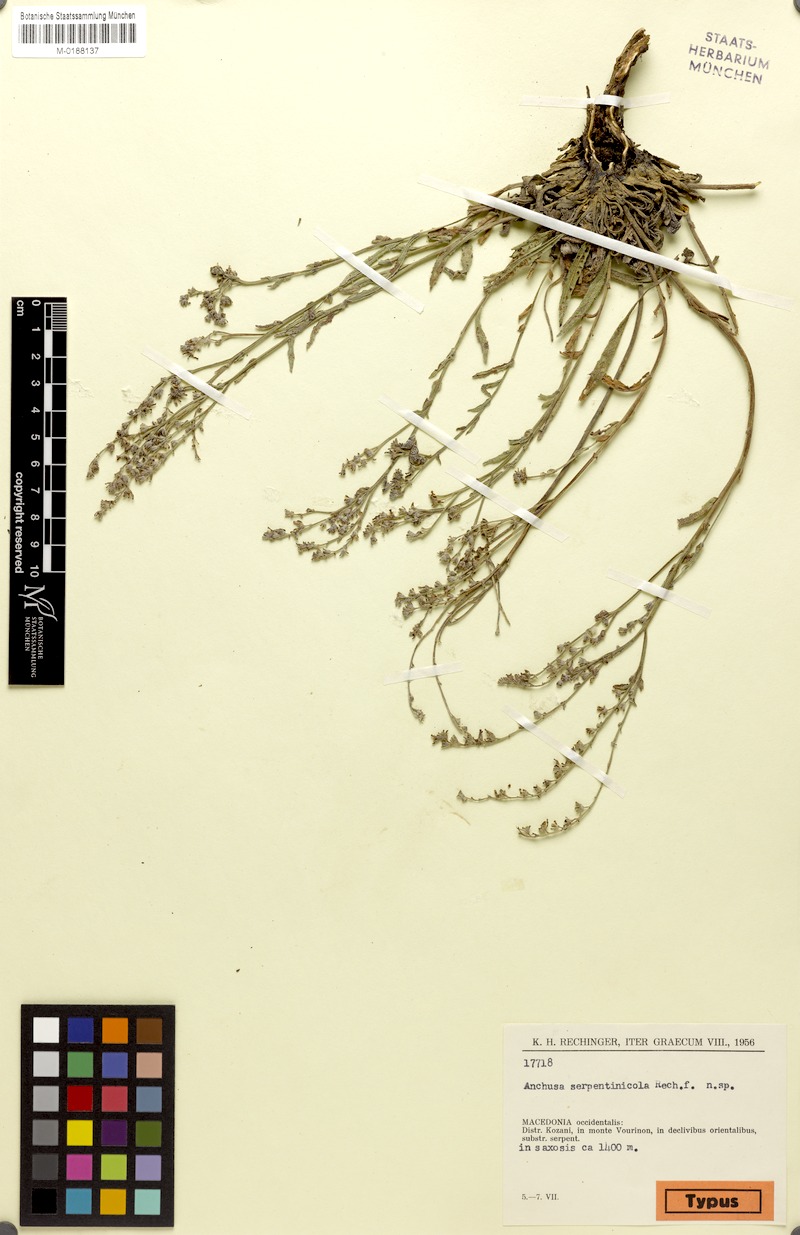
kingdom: Plantae
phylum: Tracheophyta
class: Magnoliopsida
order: Boraginales
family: Boraginaceae
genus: Cynoglottis
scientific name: Cynoglottis barrelieri
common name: False alkanet
